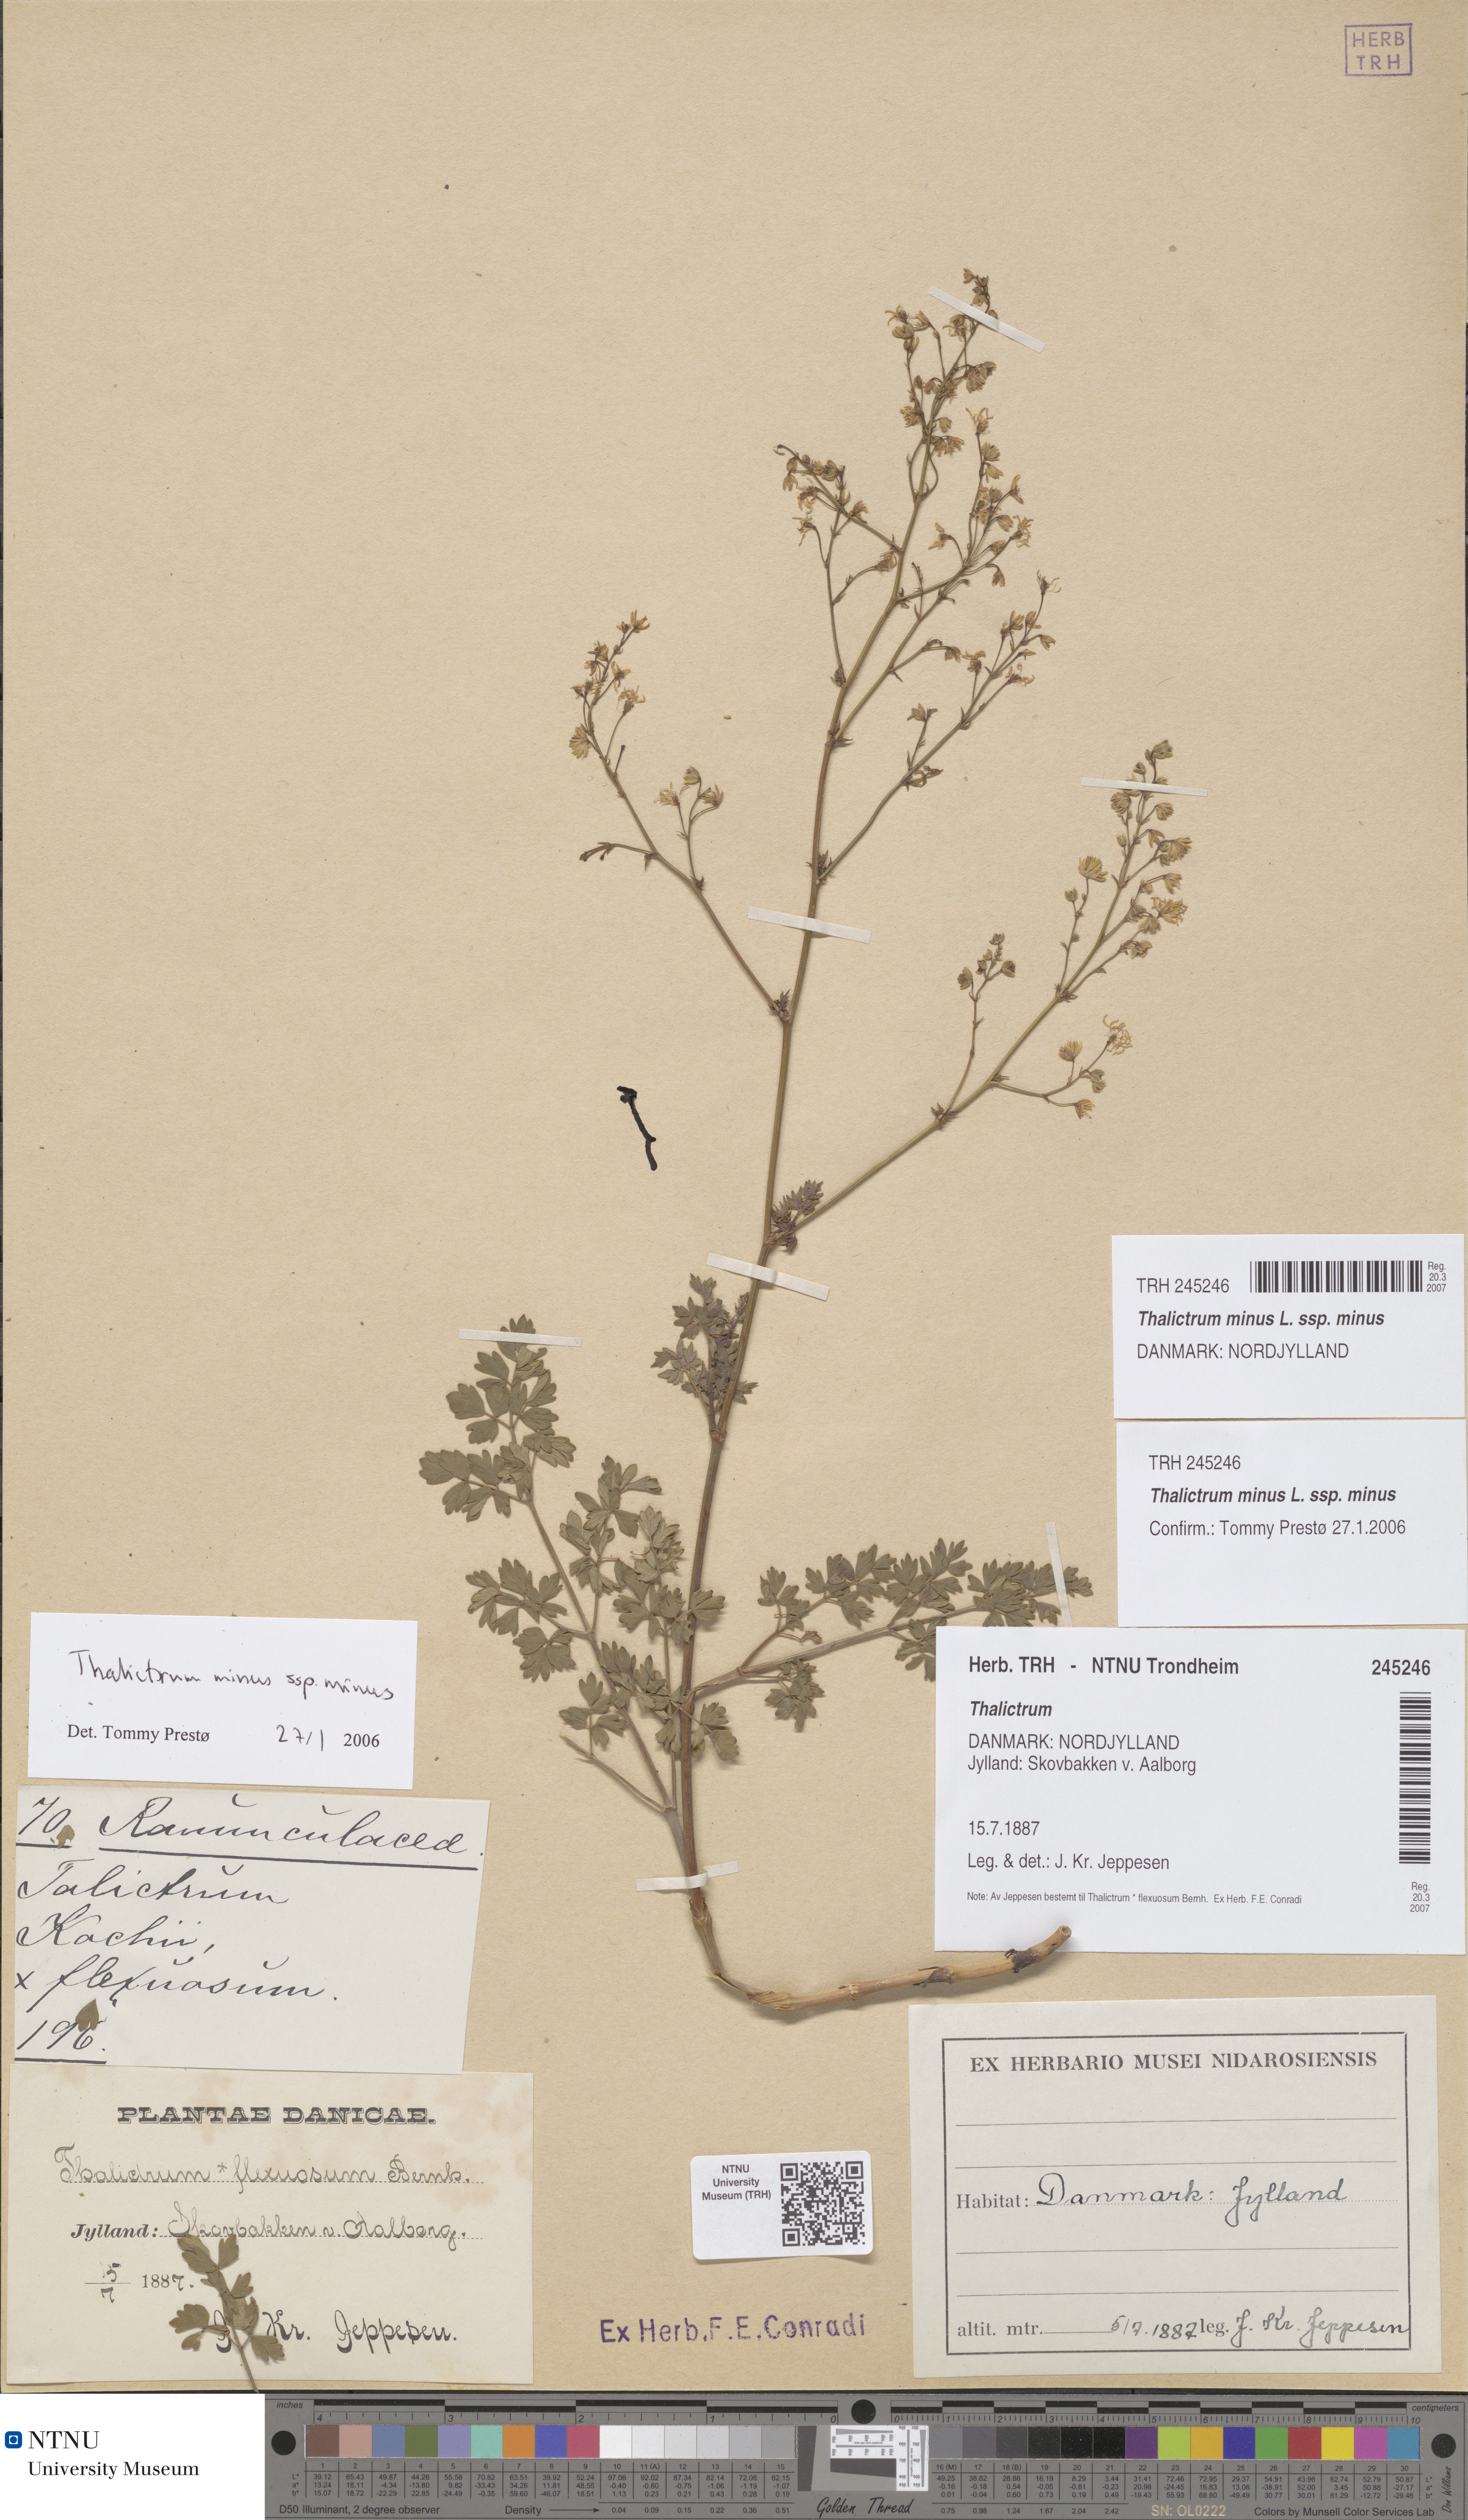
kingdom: Plantae
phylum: Tracheophyta
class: Magnoliopsida
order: Ranunculales
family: Ranunculaceae
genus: Thalictrum
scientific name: Thalictrum minus
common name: Lesser meadow-rue
